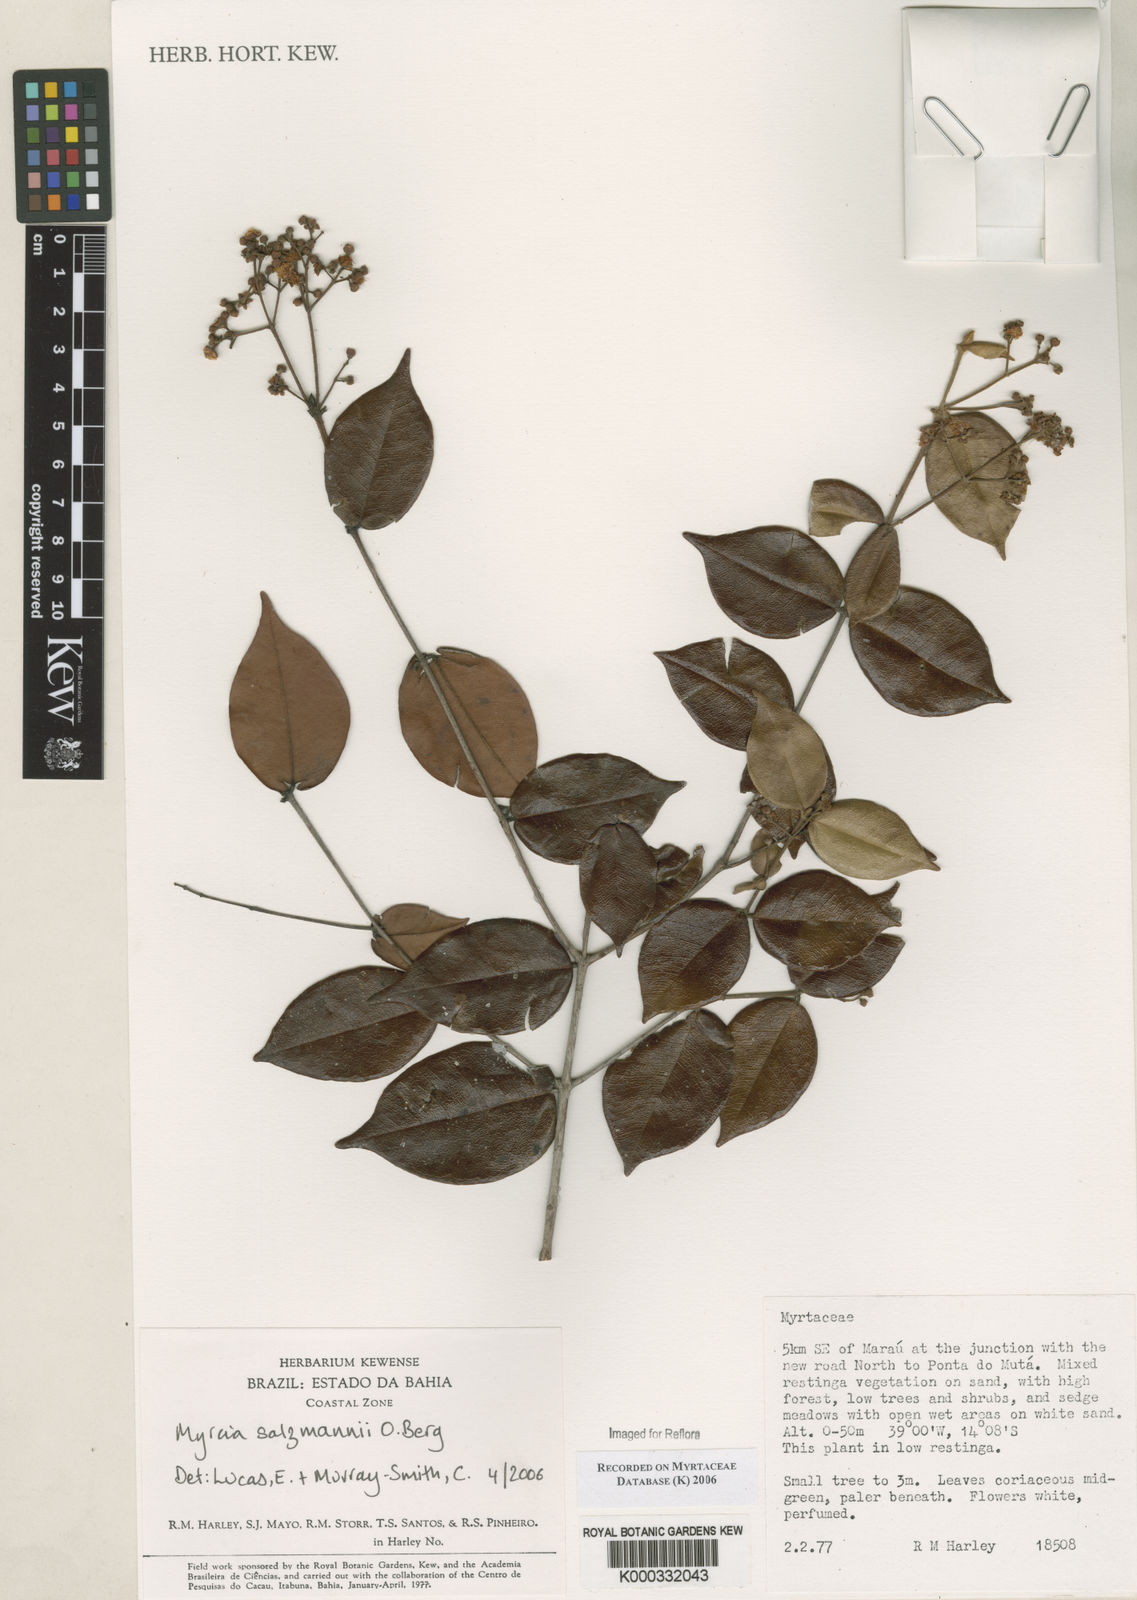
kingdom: Plantae
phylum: Tracheophyta
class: Magnoliopsida
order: Myrtales
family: Myrtaceae
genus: Myrcia
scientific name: Myrcia salzmannii
